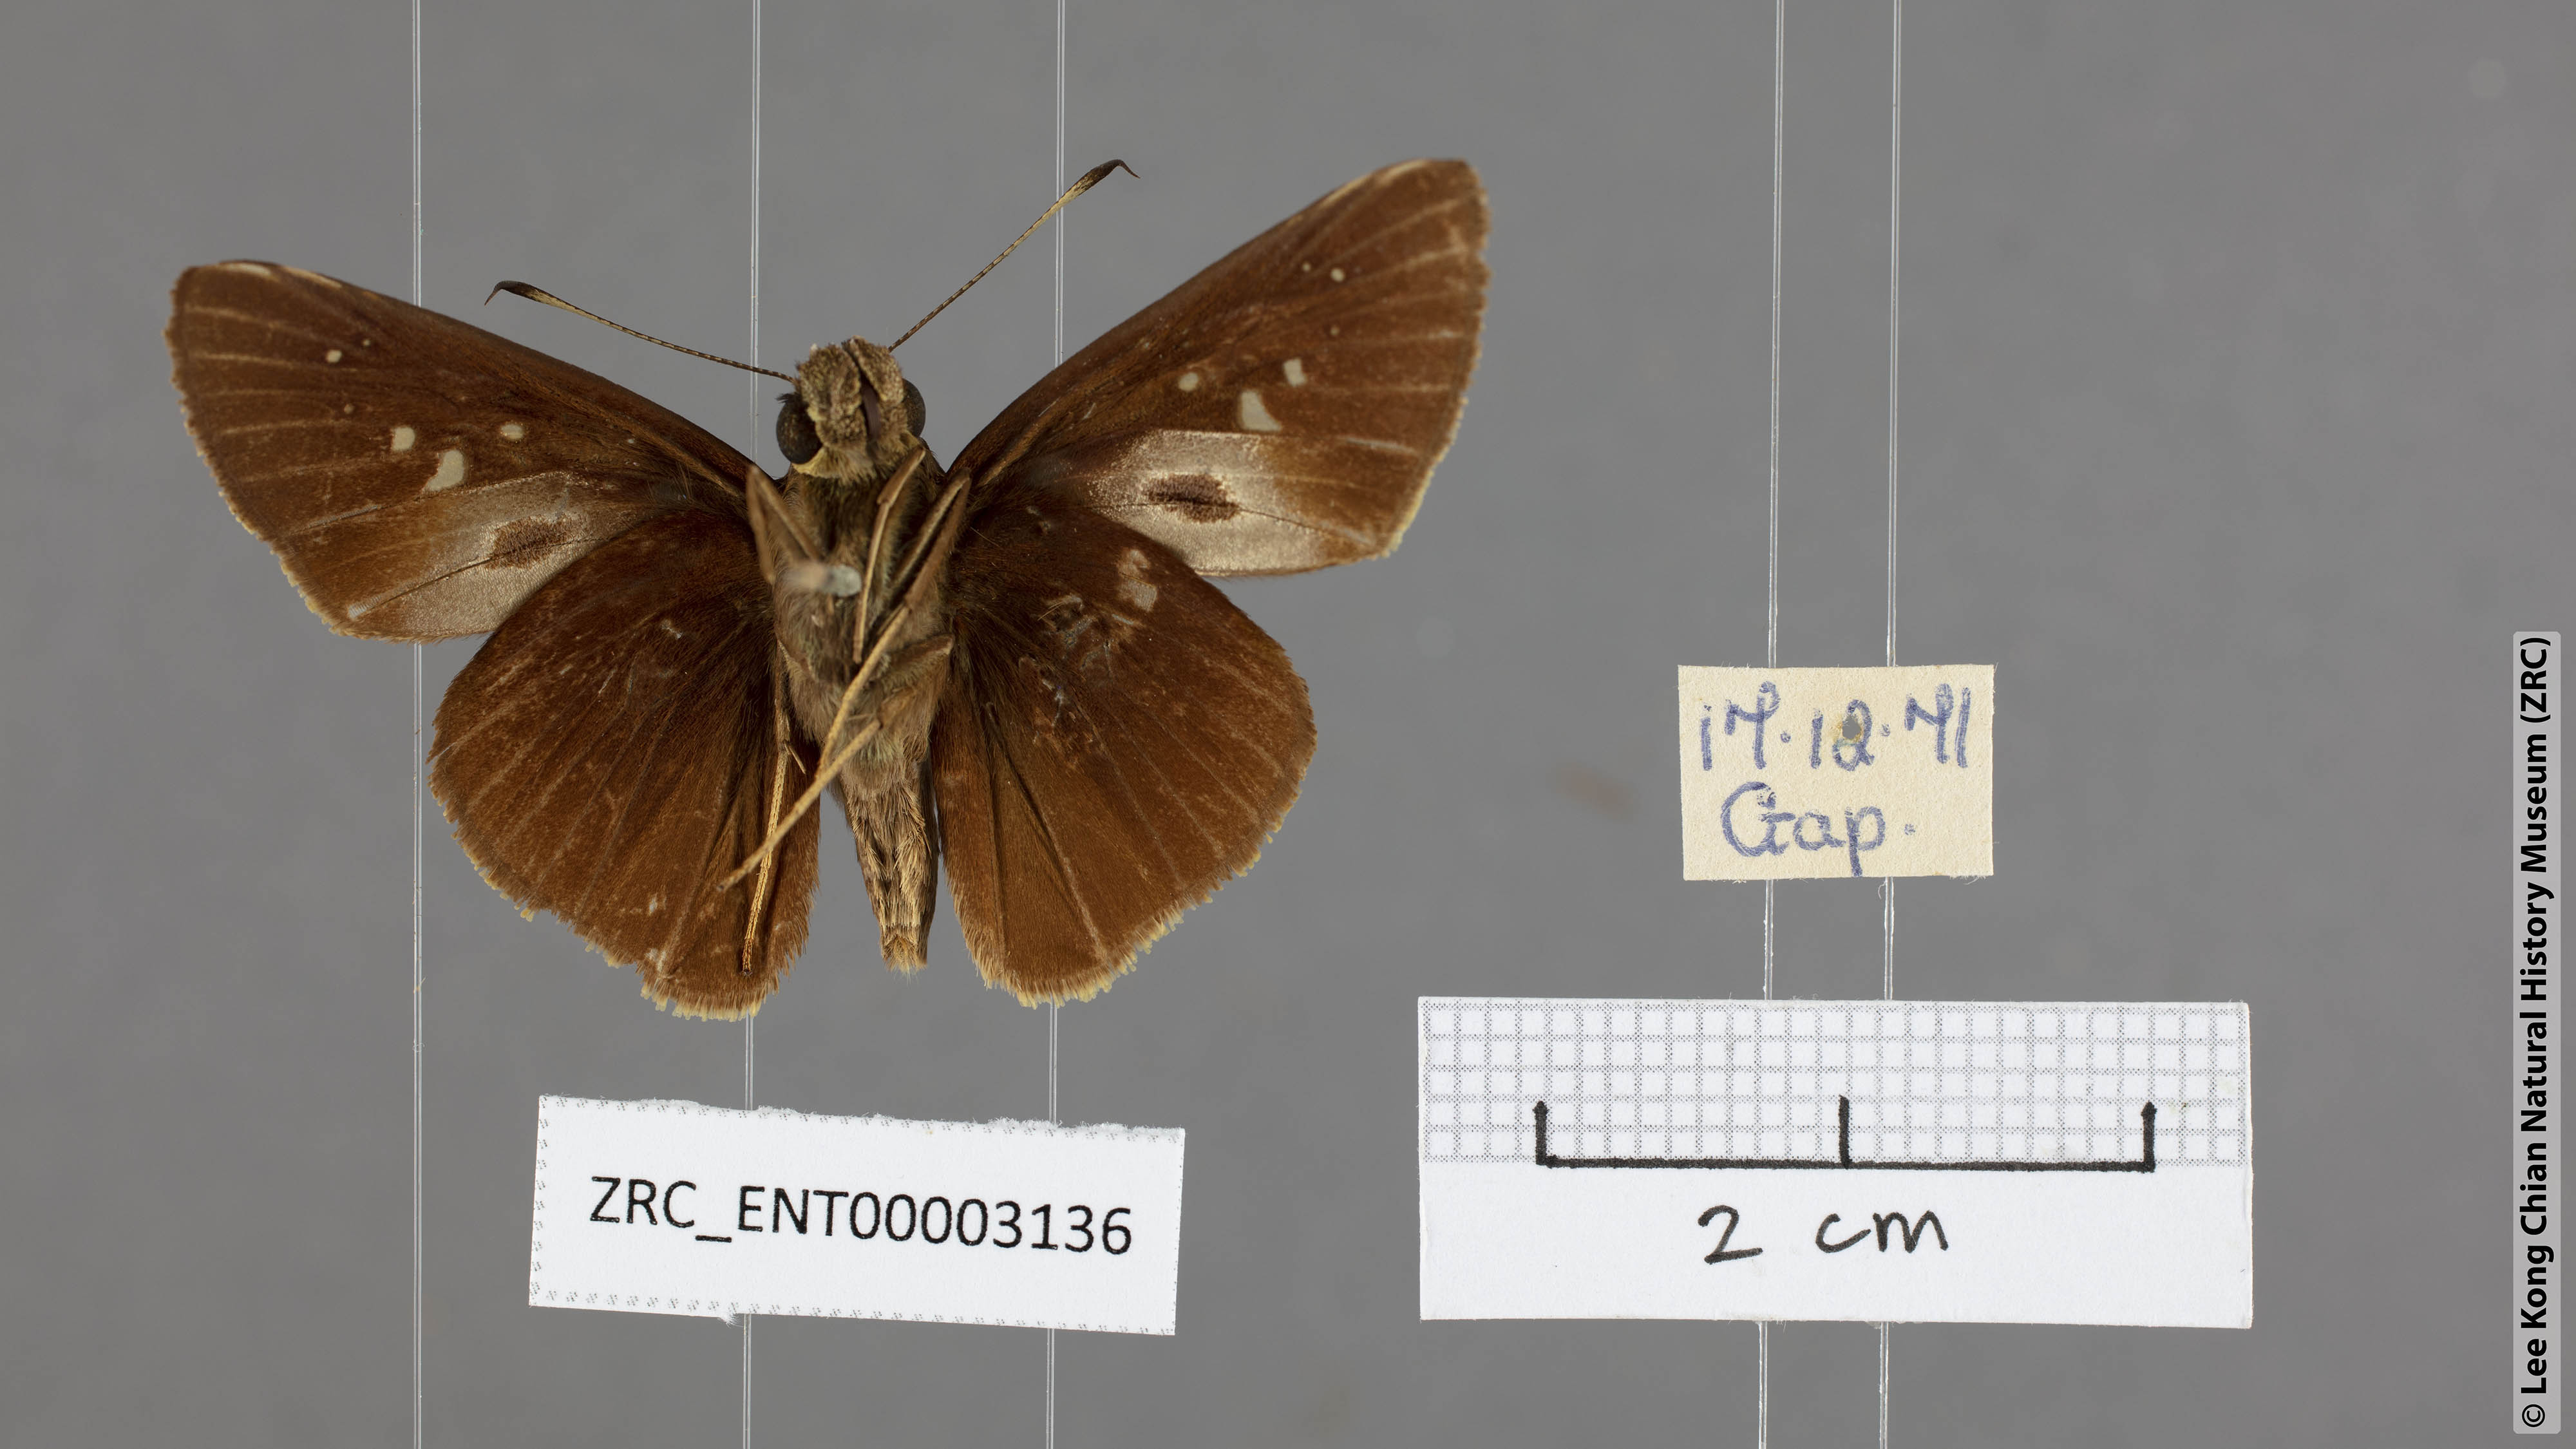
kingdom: Animalia
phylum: Arthropoda
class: Insecta
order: Lepidoptera
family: Hesperiidae
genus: Baoris
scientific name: Baoris oceia
